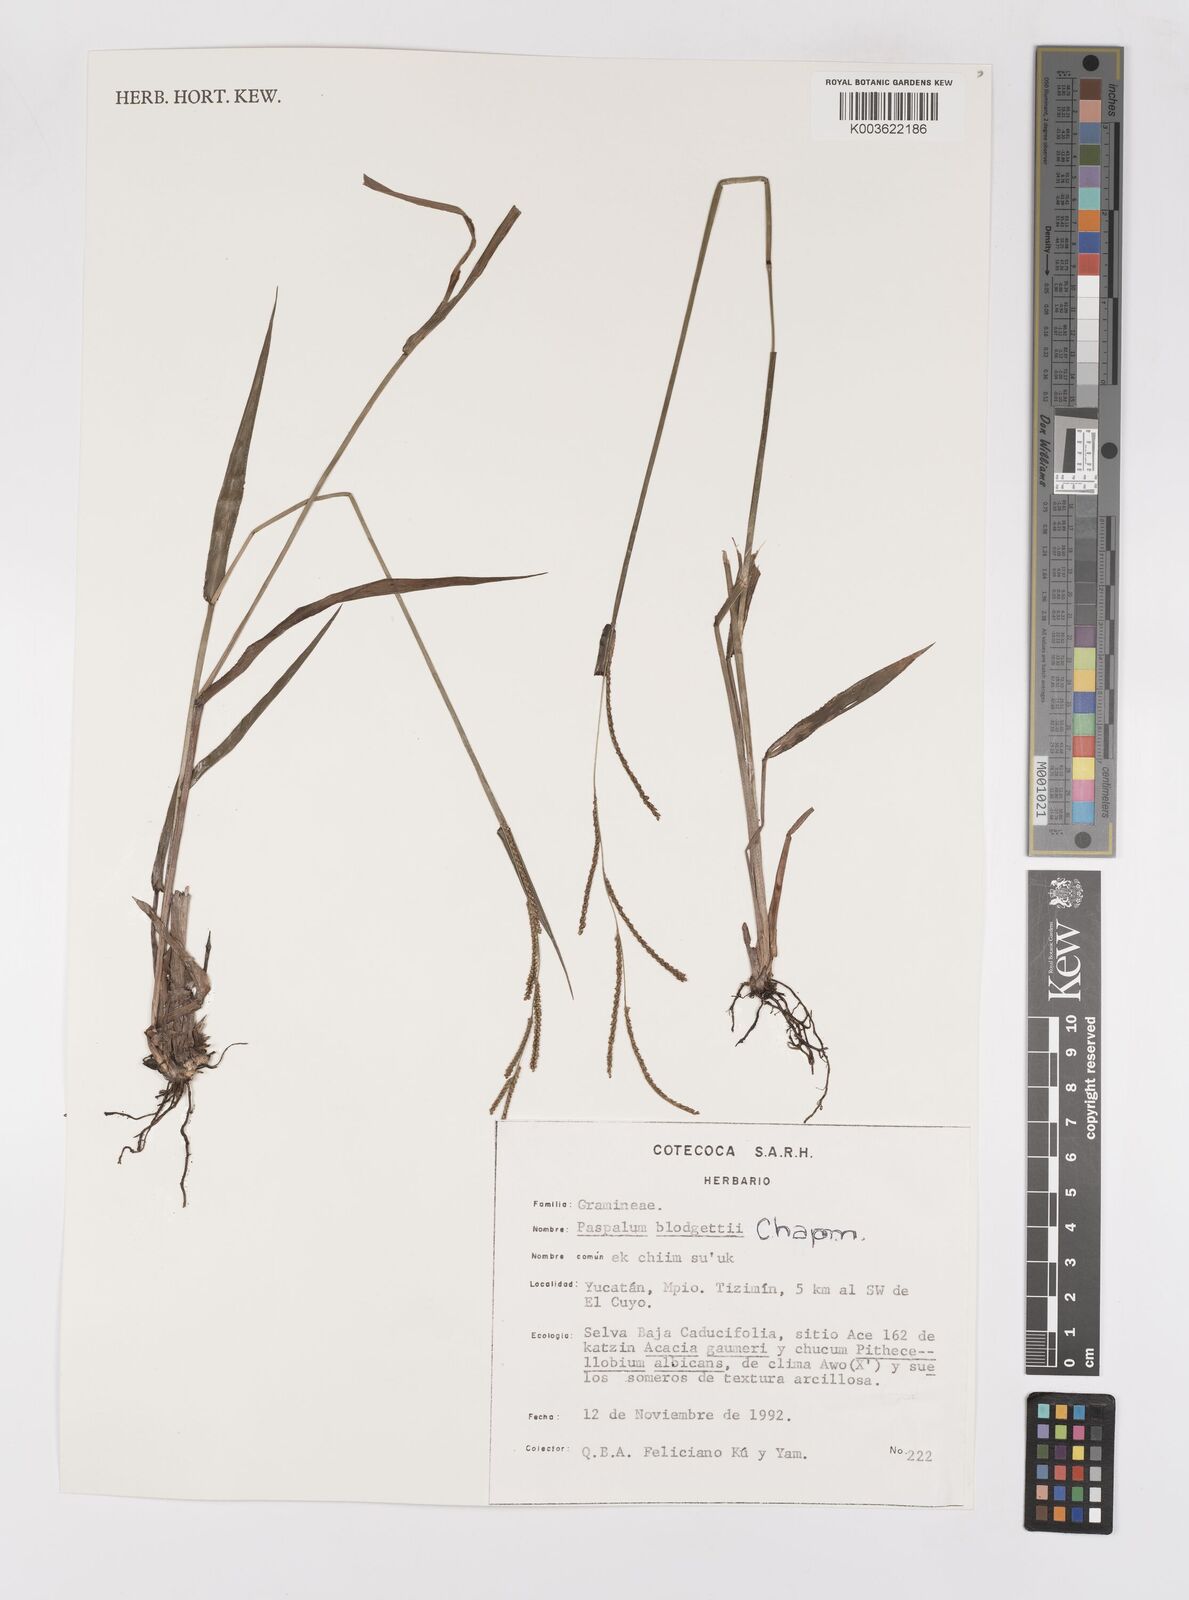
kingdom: Plantae
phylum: Tracheophyta
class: Liliopsida
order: Poales
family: Poaceae
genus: Paspalum
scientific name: Paspalum blodgettii
